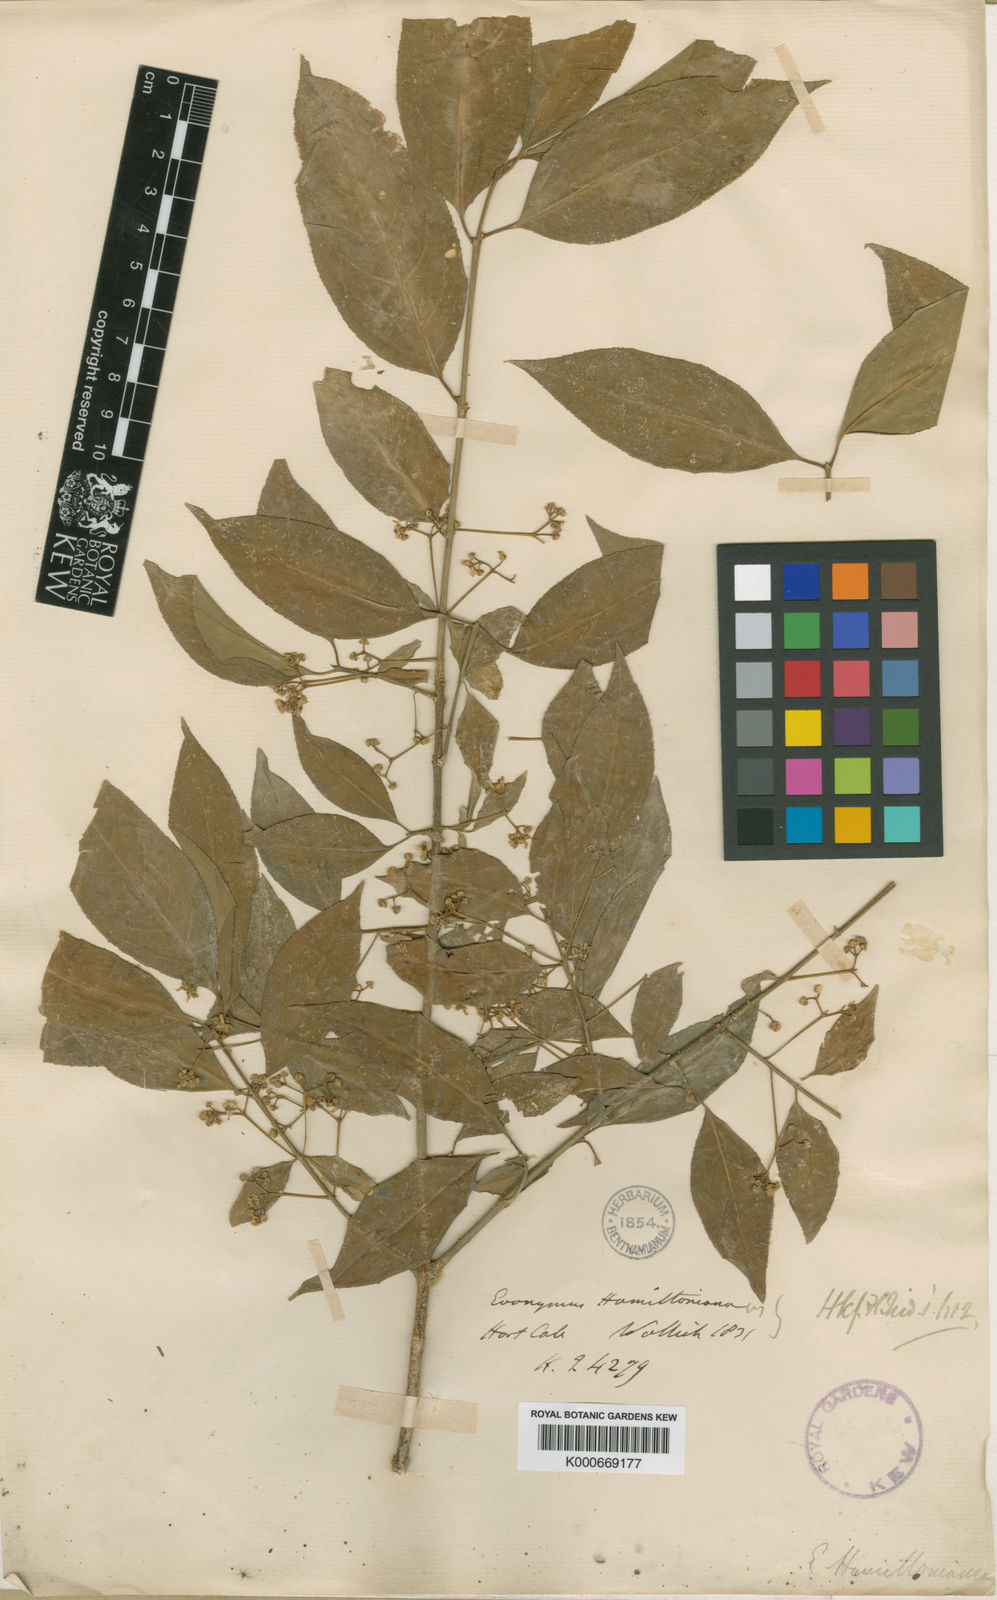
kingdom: Plantae
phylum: Tracheophyta
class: Magnoliopsida
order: Celastrales
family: Celastraceae
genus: Euonymus
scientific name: Euonymus hamiltonianus
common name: Hamilton's spindletree
